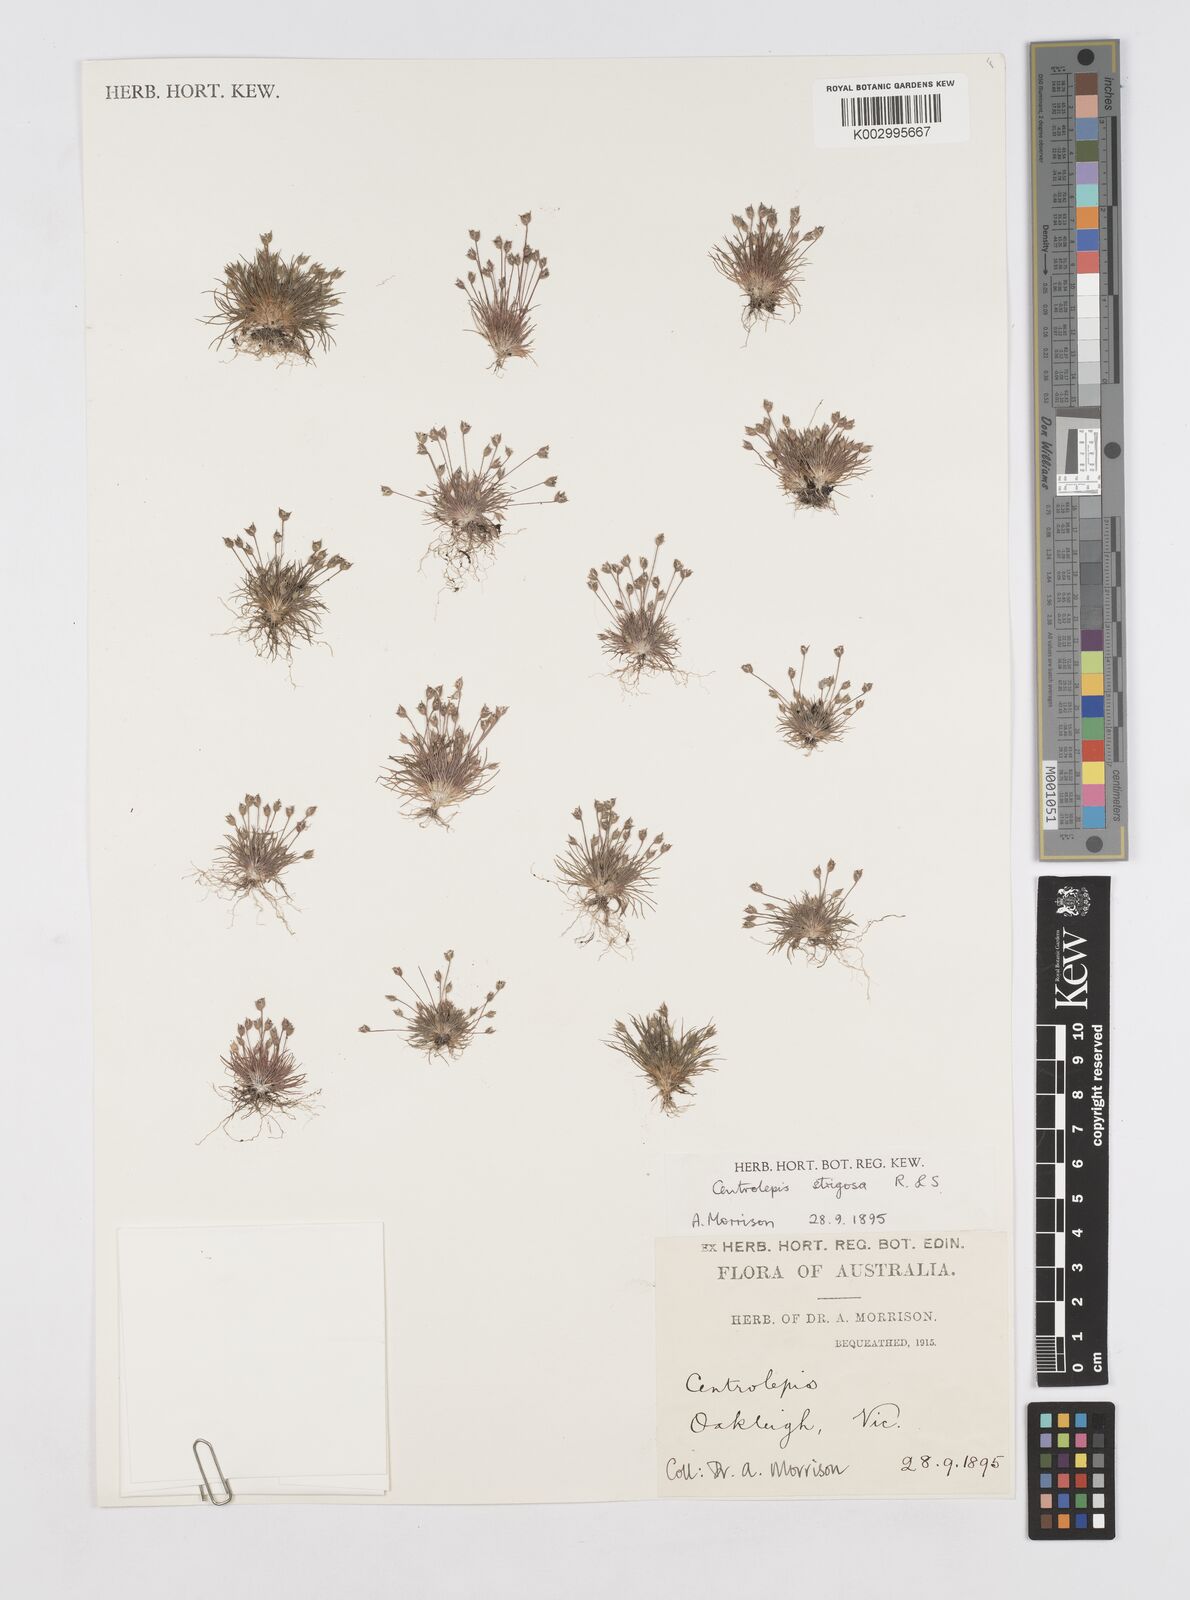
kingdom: Plantae
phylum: Tracheophyta
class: Liliopsida
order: Poales
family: Restionaceae
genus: Centrolepis
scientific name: Centrolepis strigosa
